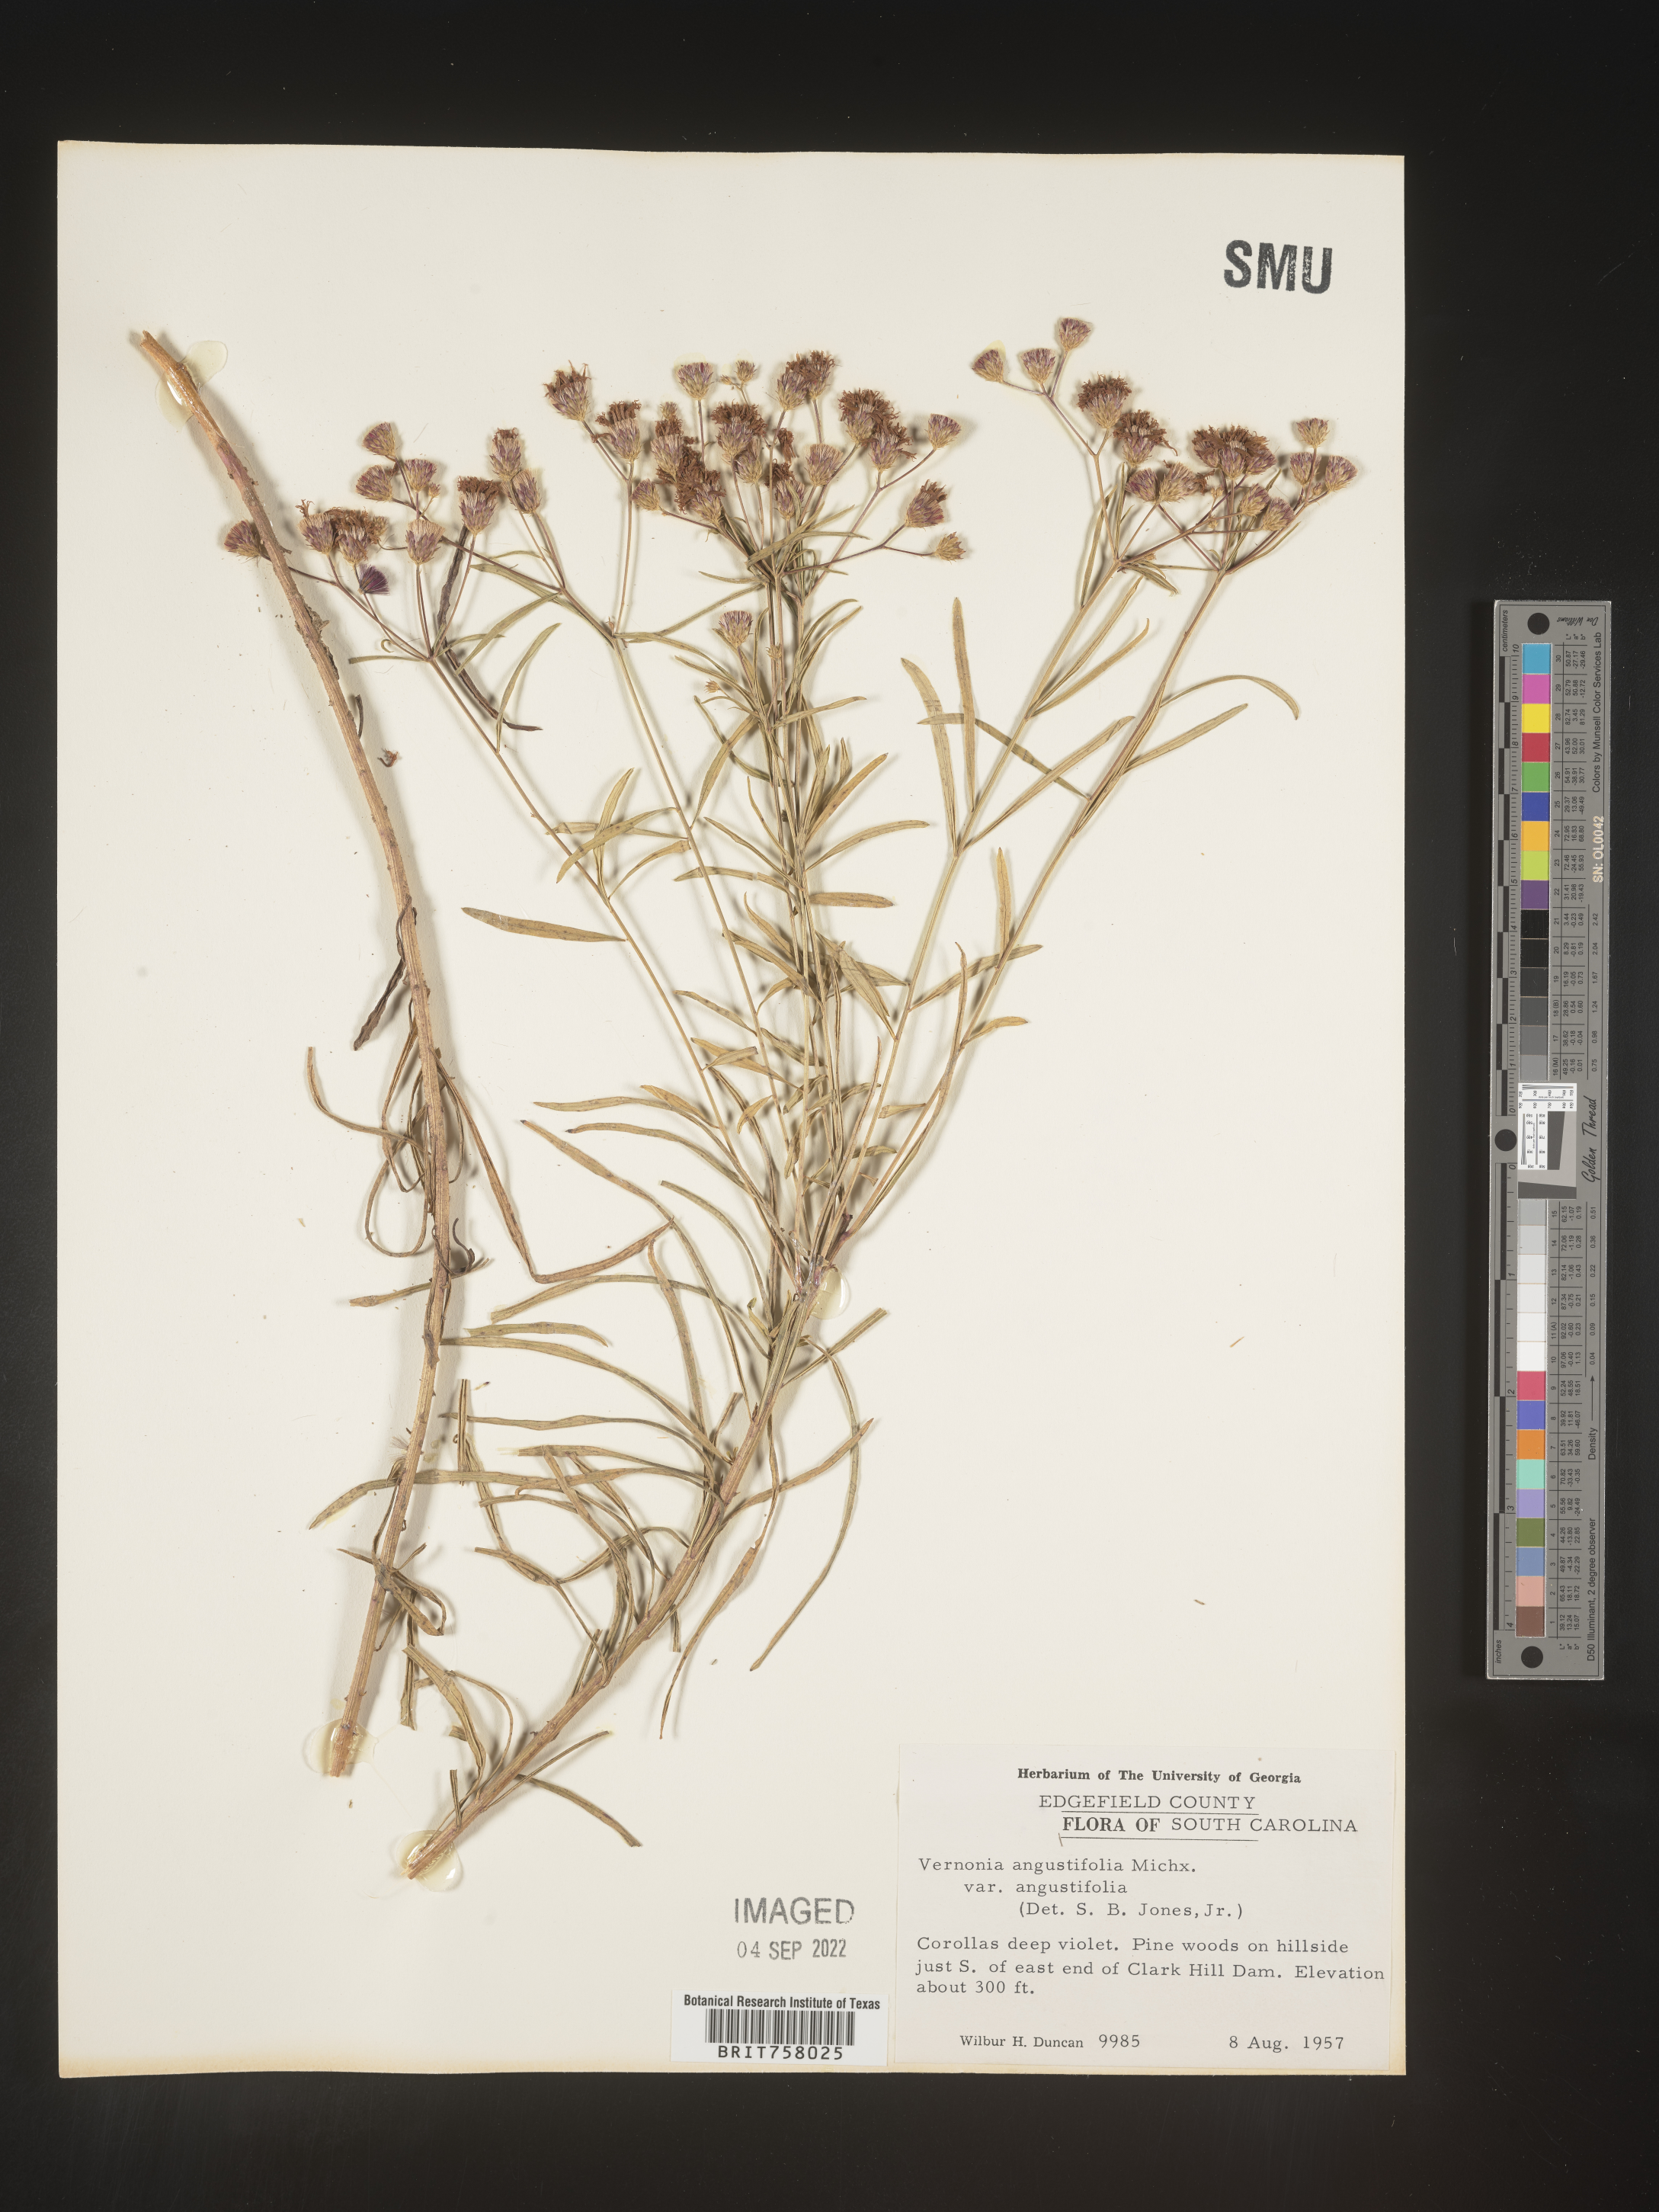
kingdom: Plantae
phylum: Tracheophyta
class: Magnoliopsida
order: Asterales
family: Asteraceae
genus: Vernonia
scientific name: Vernonia angustifolia
